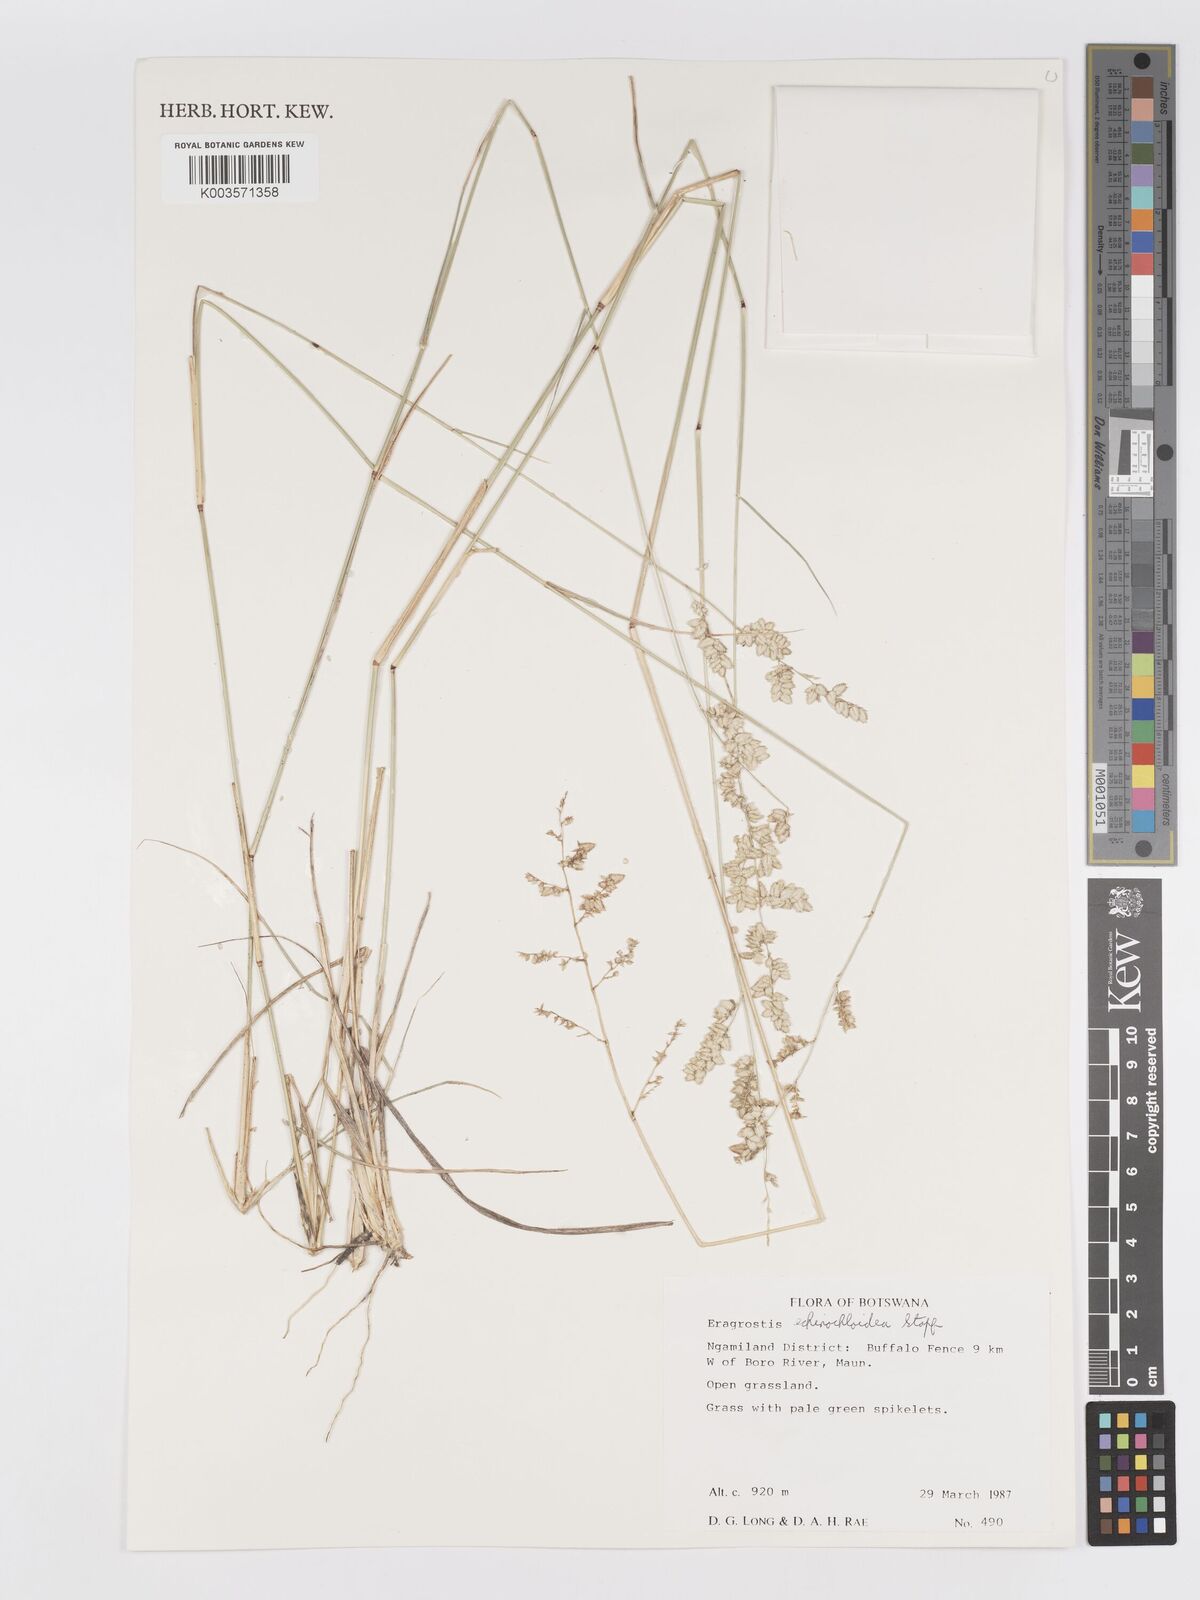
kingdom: Plantae
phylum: Tracheophyta
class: Liliopsida
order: Poales
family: Poaceae
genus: Eragrostis
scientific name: Eragrostis echinochloidea
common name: African lovegrass
